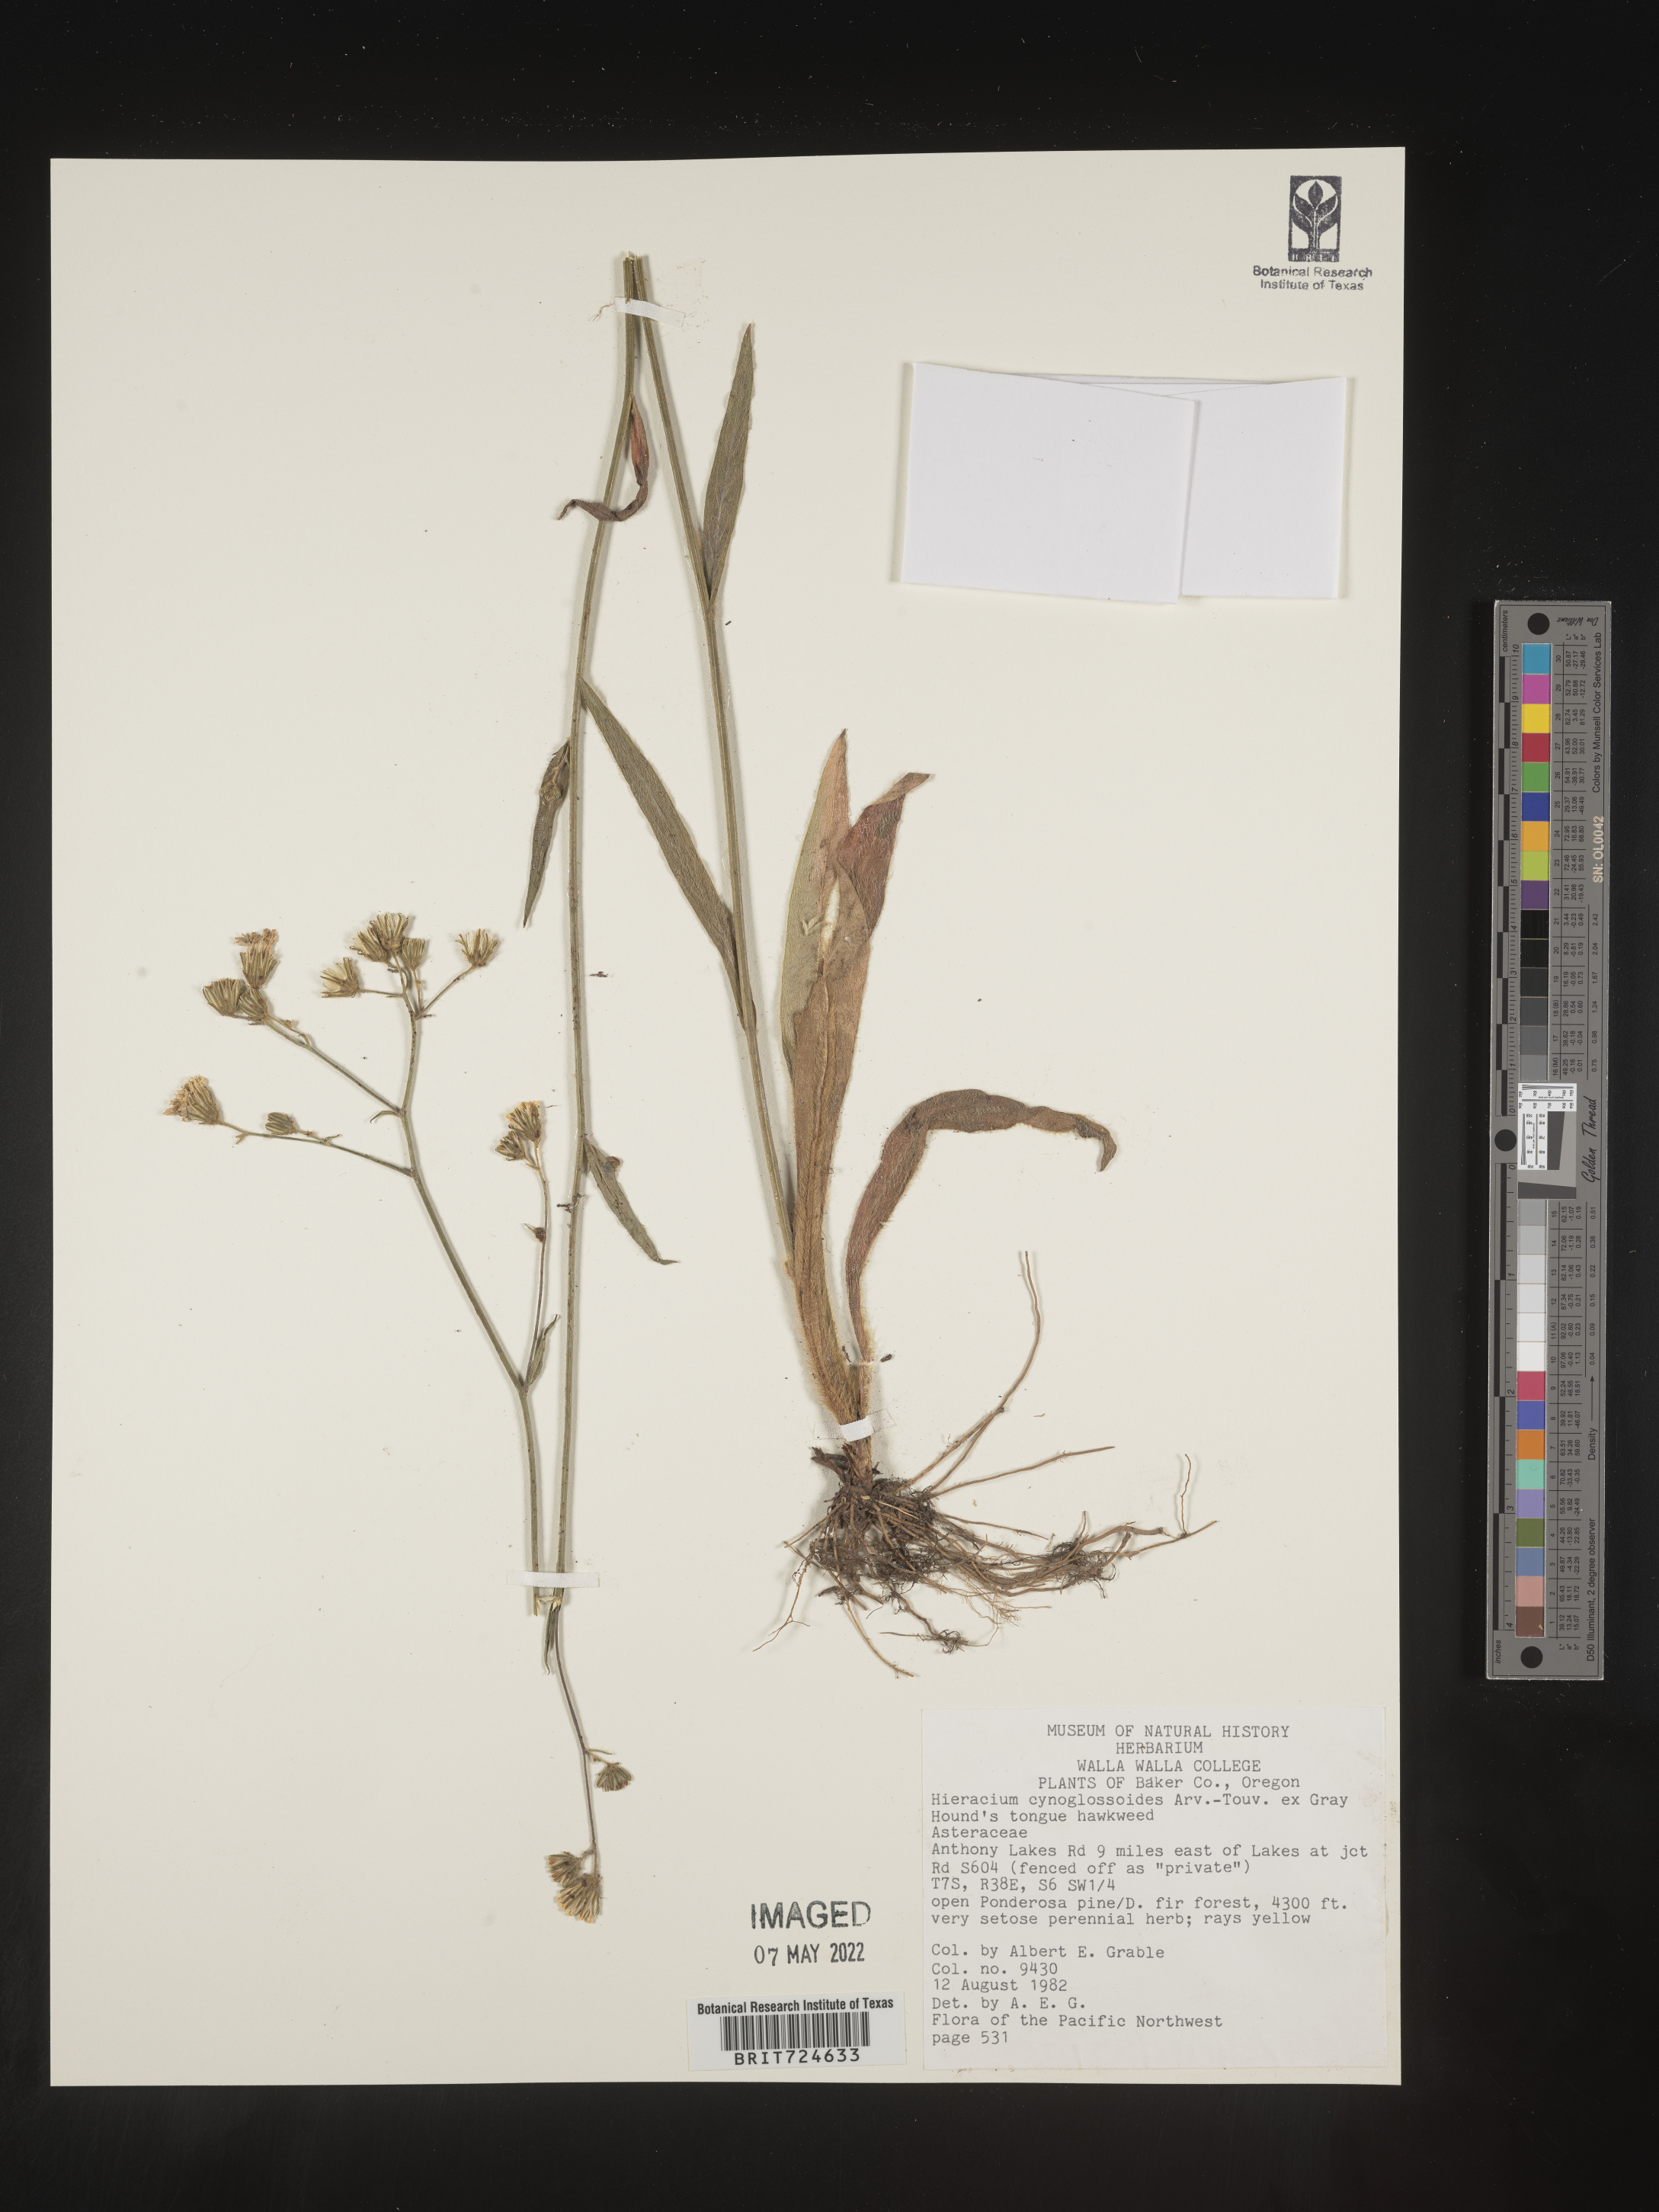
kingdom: Plantae
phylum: Tracheophyta
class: Magnoliopsida
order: Asterales
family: Asteraceae
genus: Hieracium
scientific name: Hieracium scouleri
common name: Hound's-tongue hawkweed
